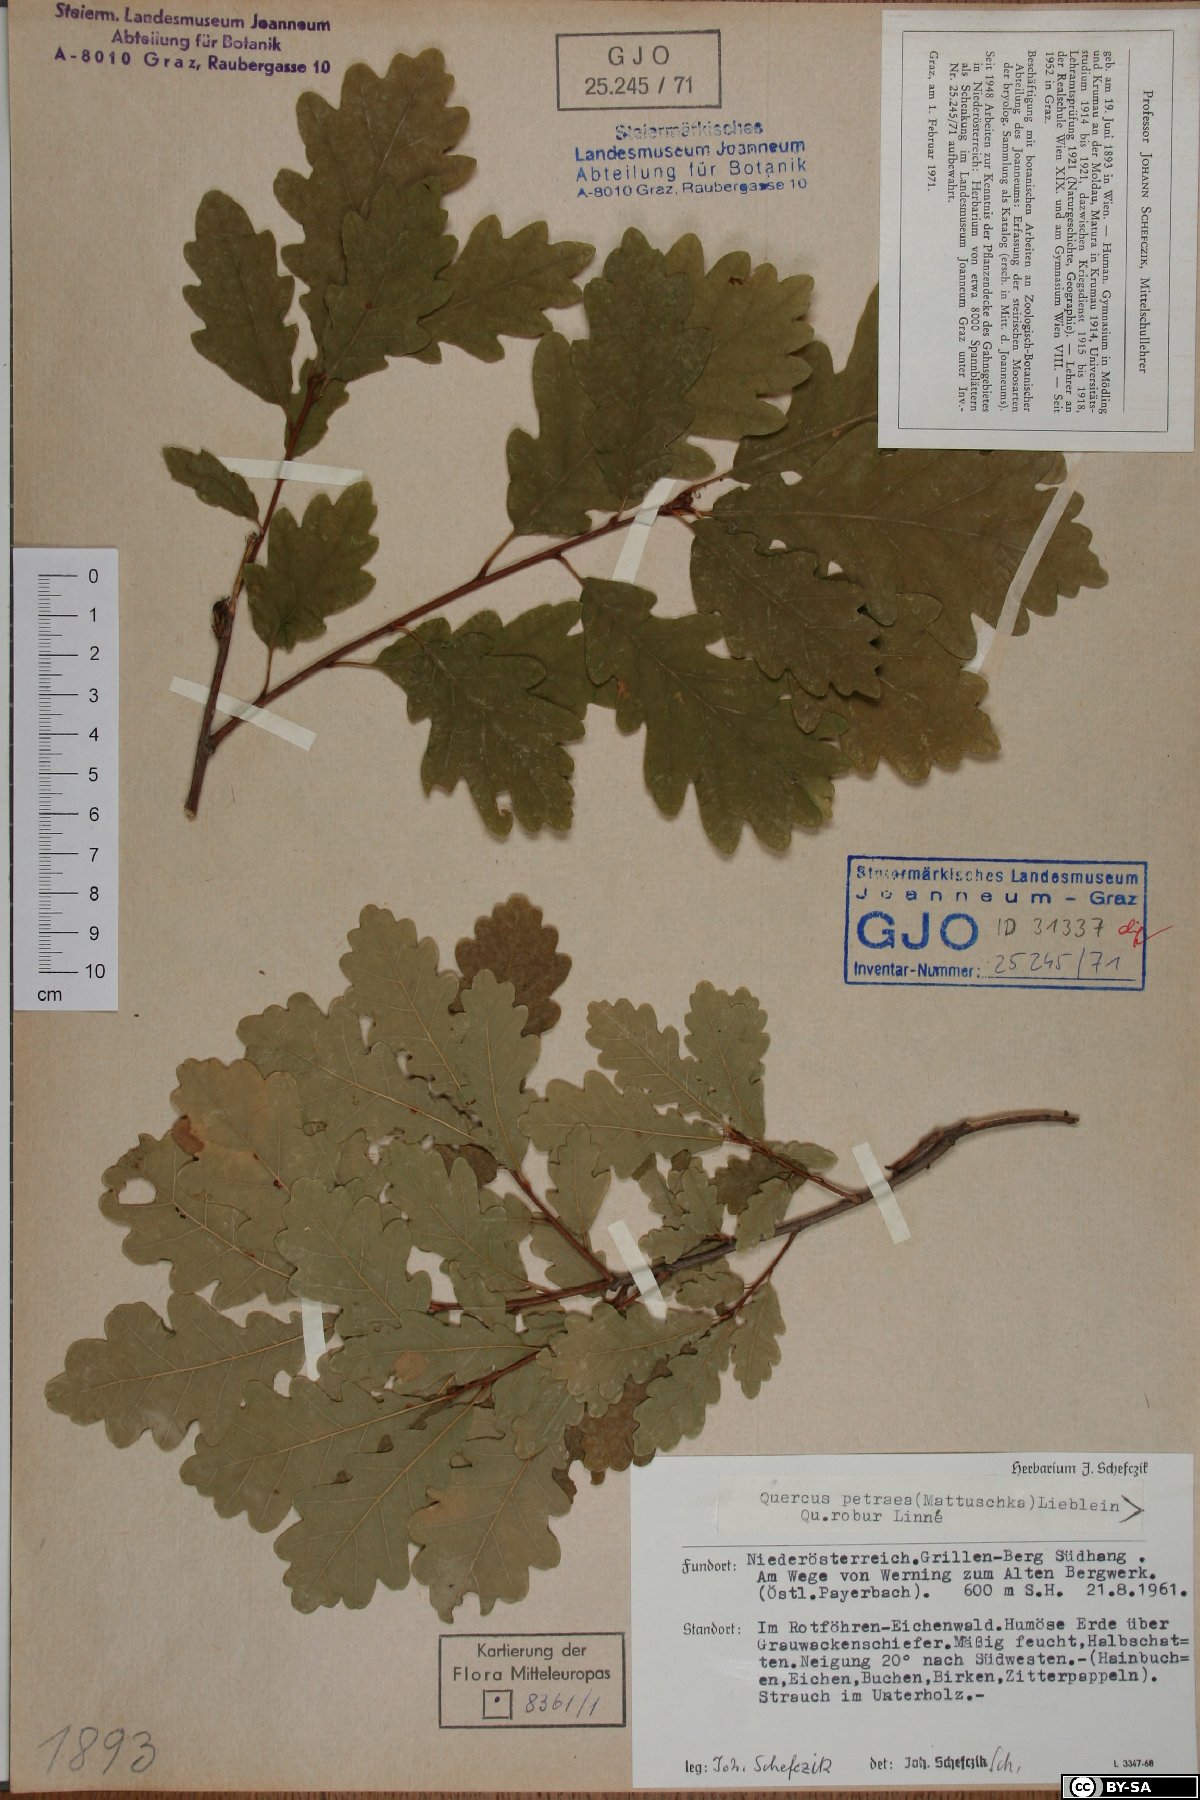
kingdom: Plantae
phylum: Tracheophyta
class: Magnoliopsida
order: Fagales
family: Fagaceae
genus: Quercus
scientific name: Quercus petraea
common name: Sessile oak
